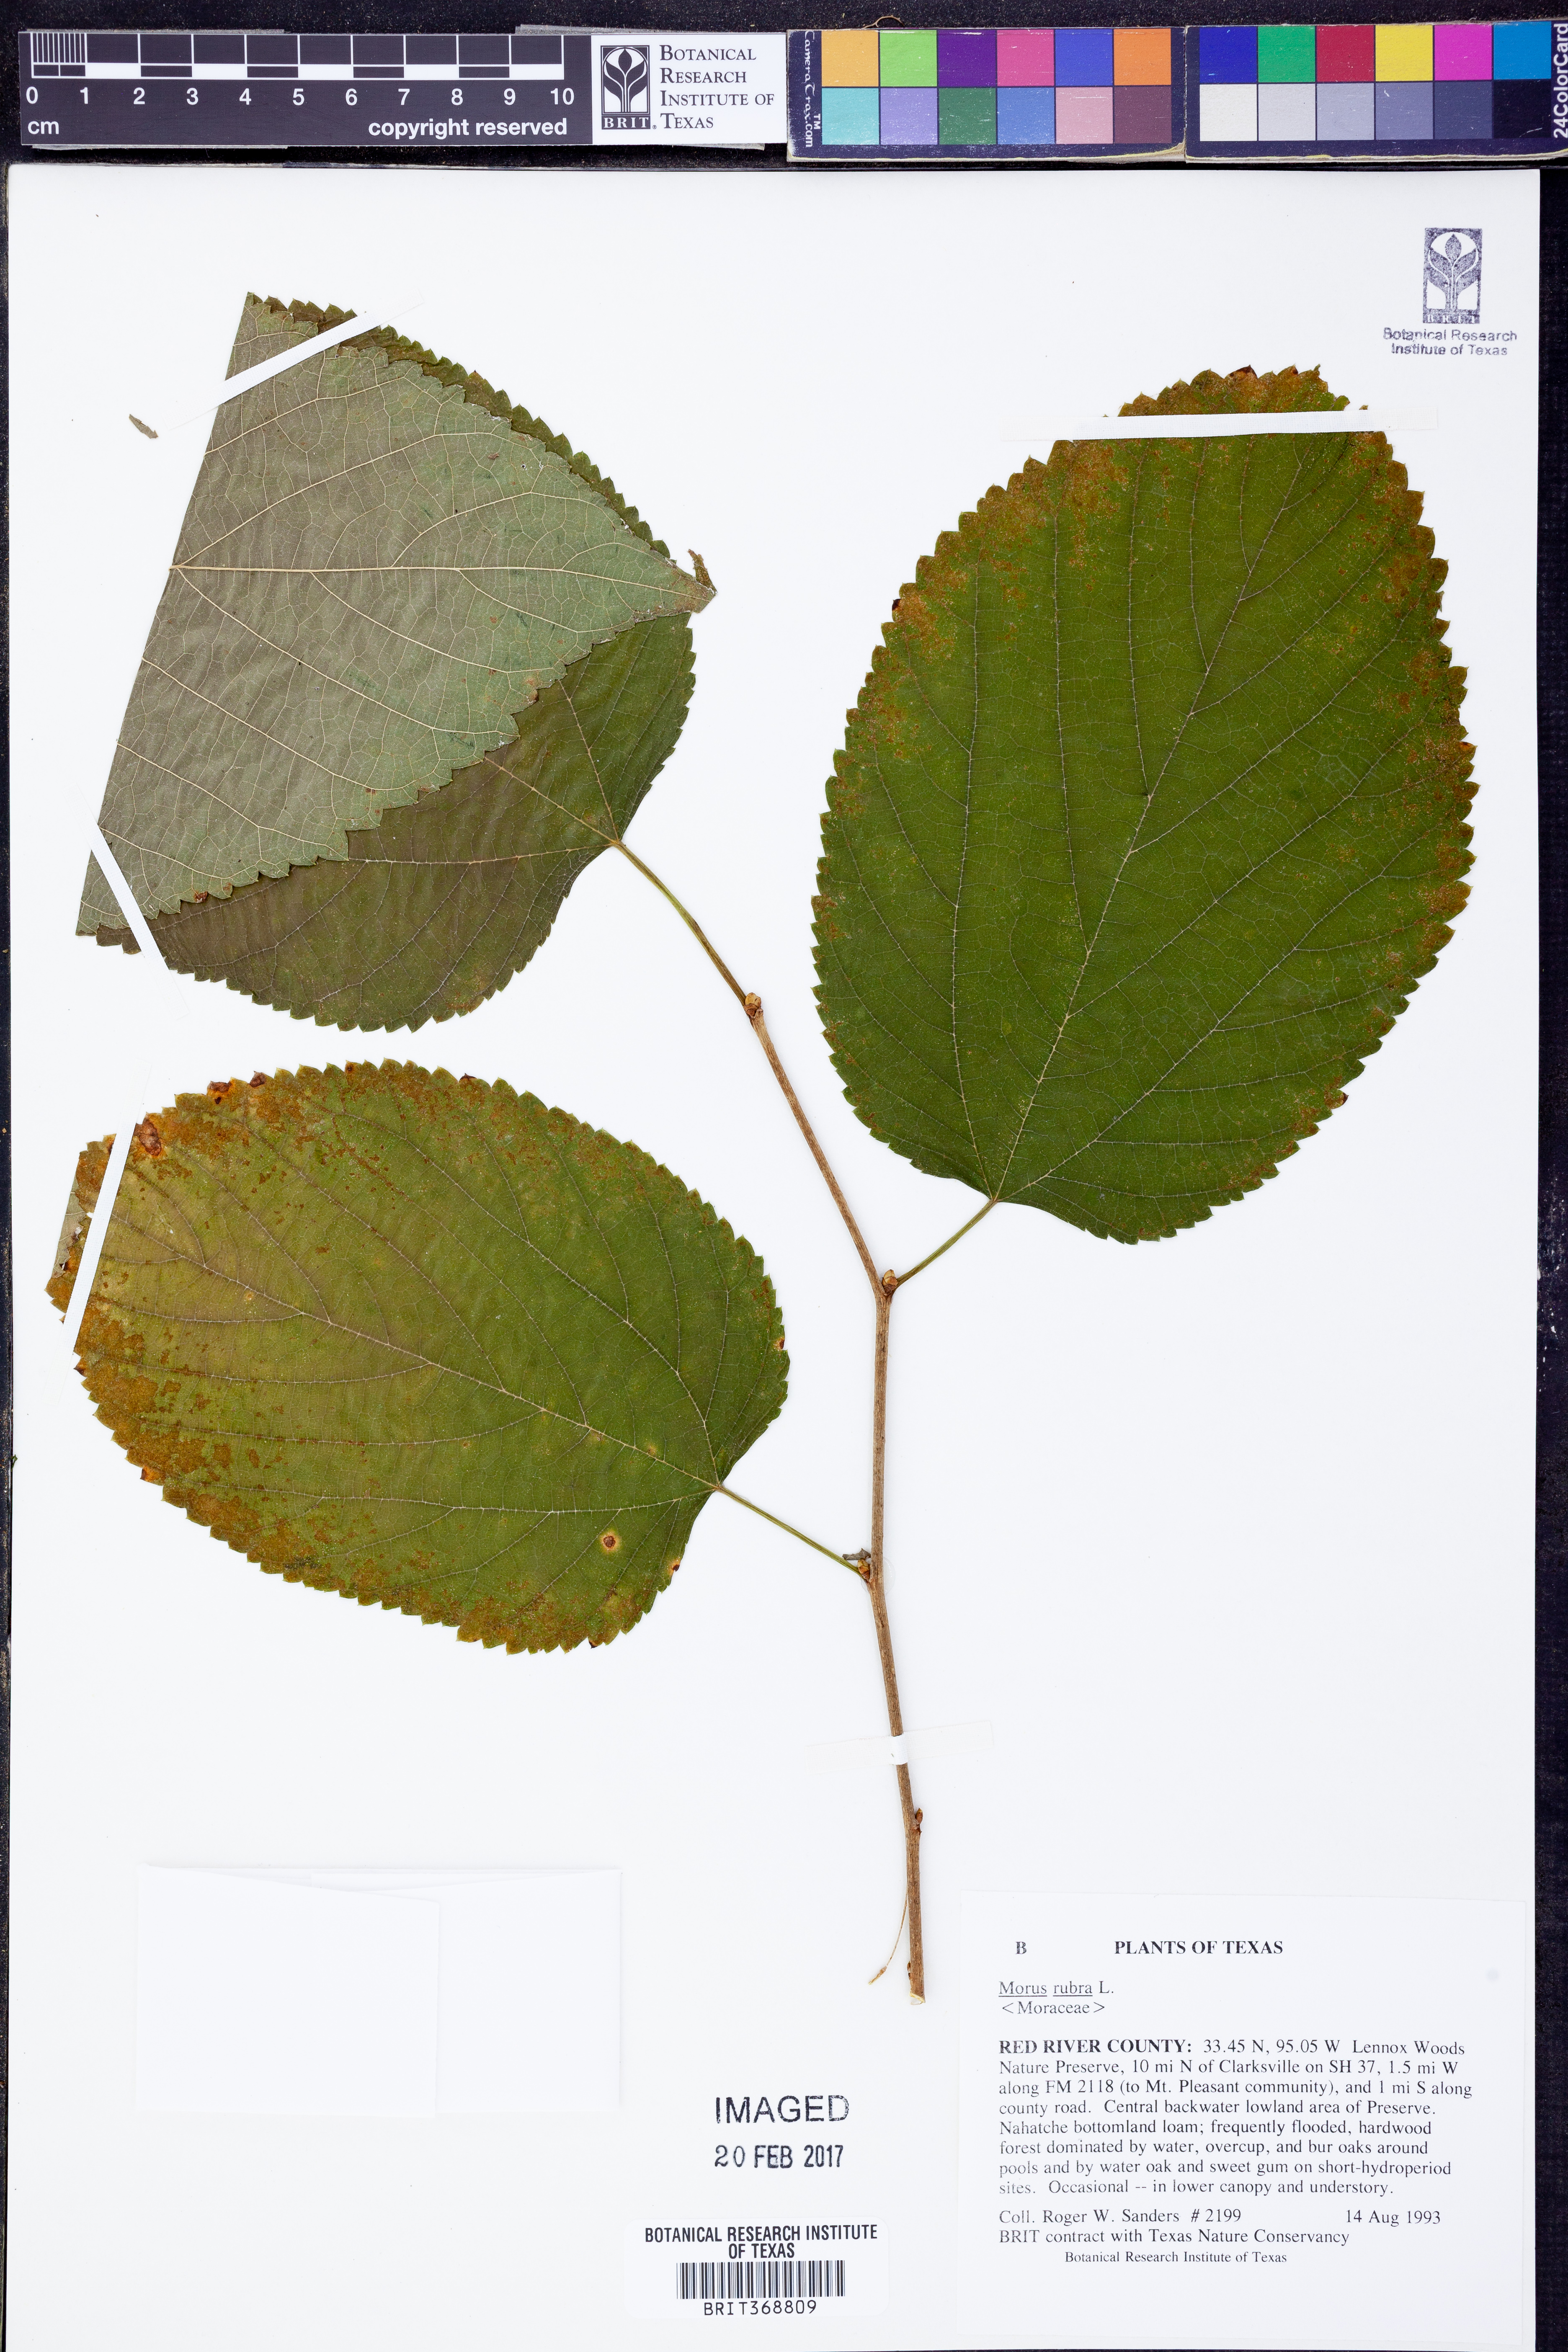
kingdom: Plantae
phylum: Tracheophyta
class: Magnoliopsida
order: Rosales
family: Moraceae
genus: Morus
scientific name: Morus rubra
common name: Red mulberry
